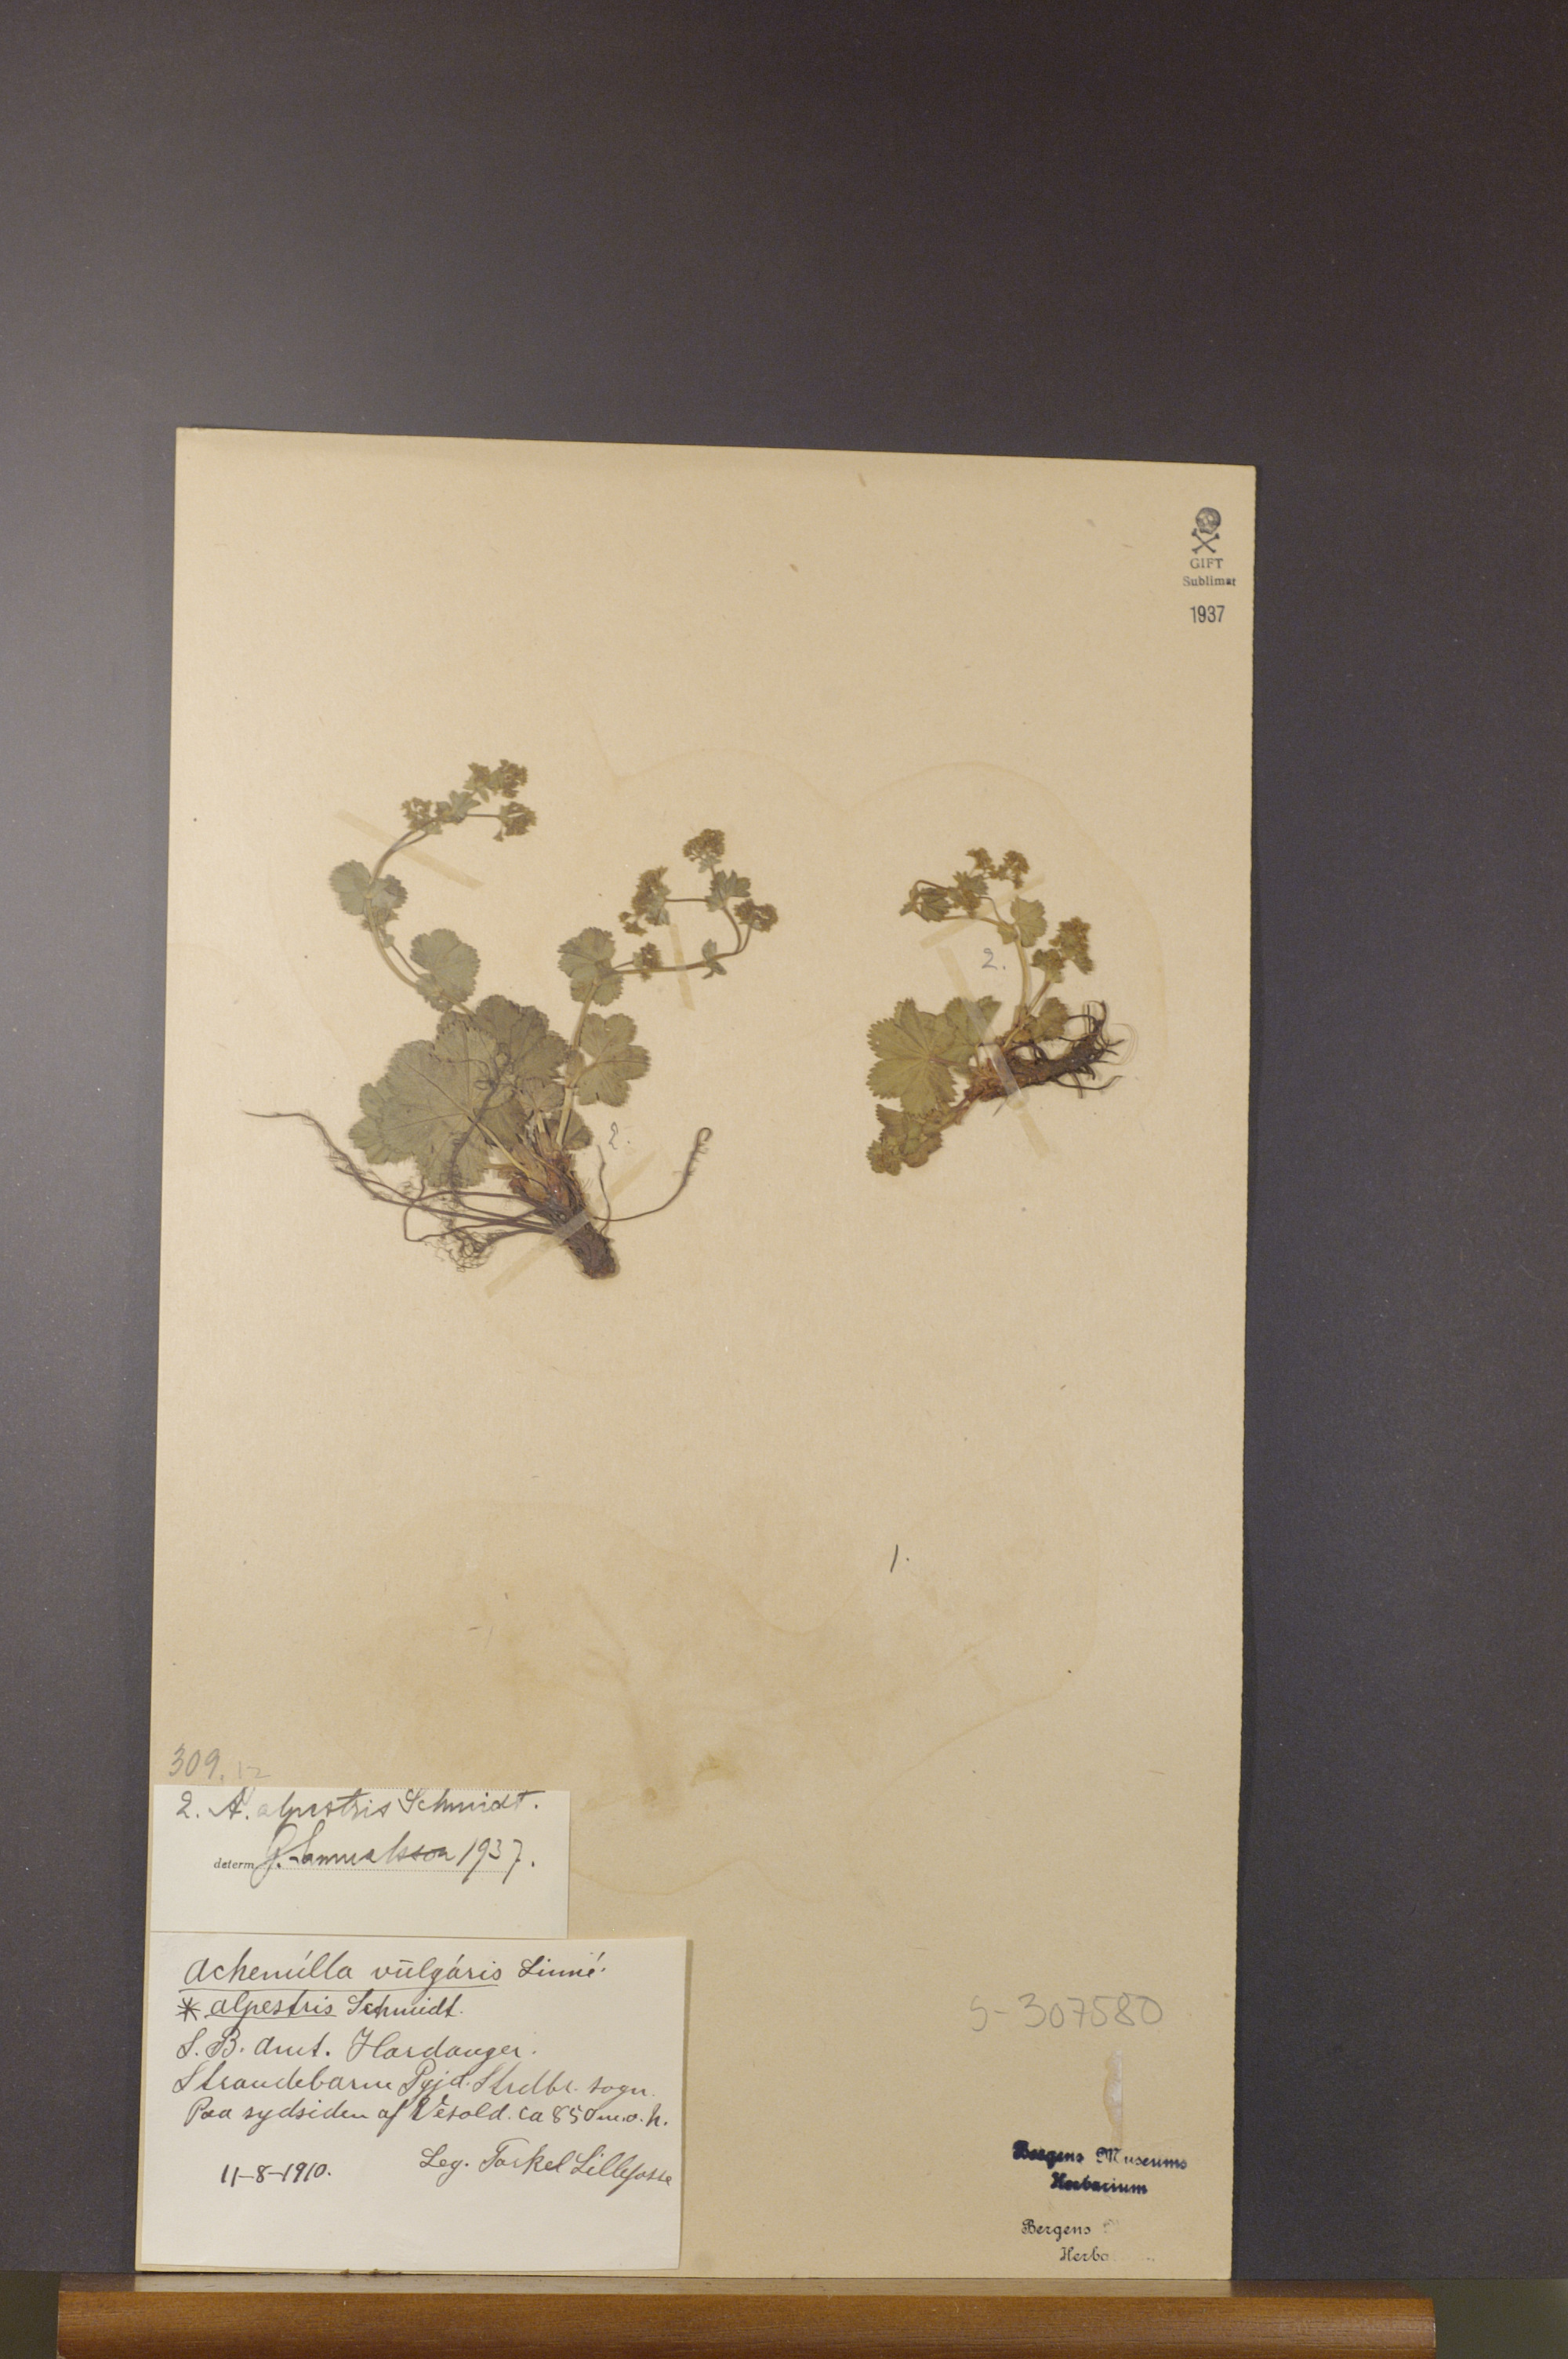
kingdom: Plantae
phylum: Tracheophyta
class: Magnoliopsida
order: Rosales
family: Rosaceae
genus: Alchemilla
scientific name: Alchemilla glabra
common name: Smooth lady's-mantle
